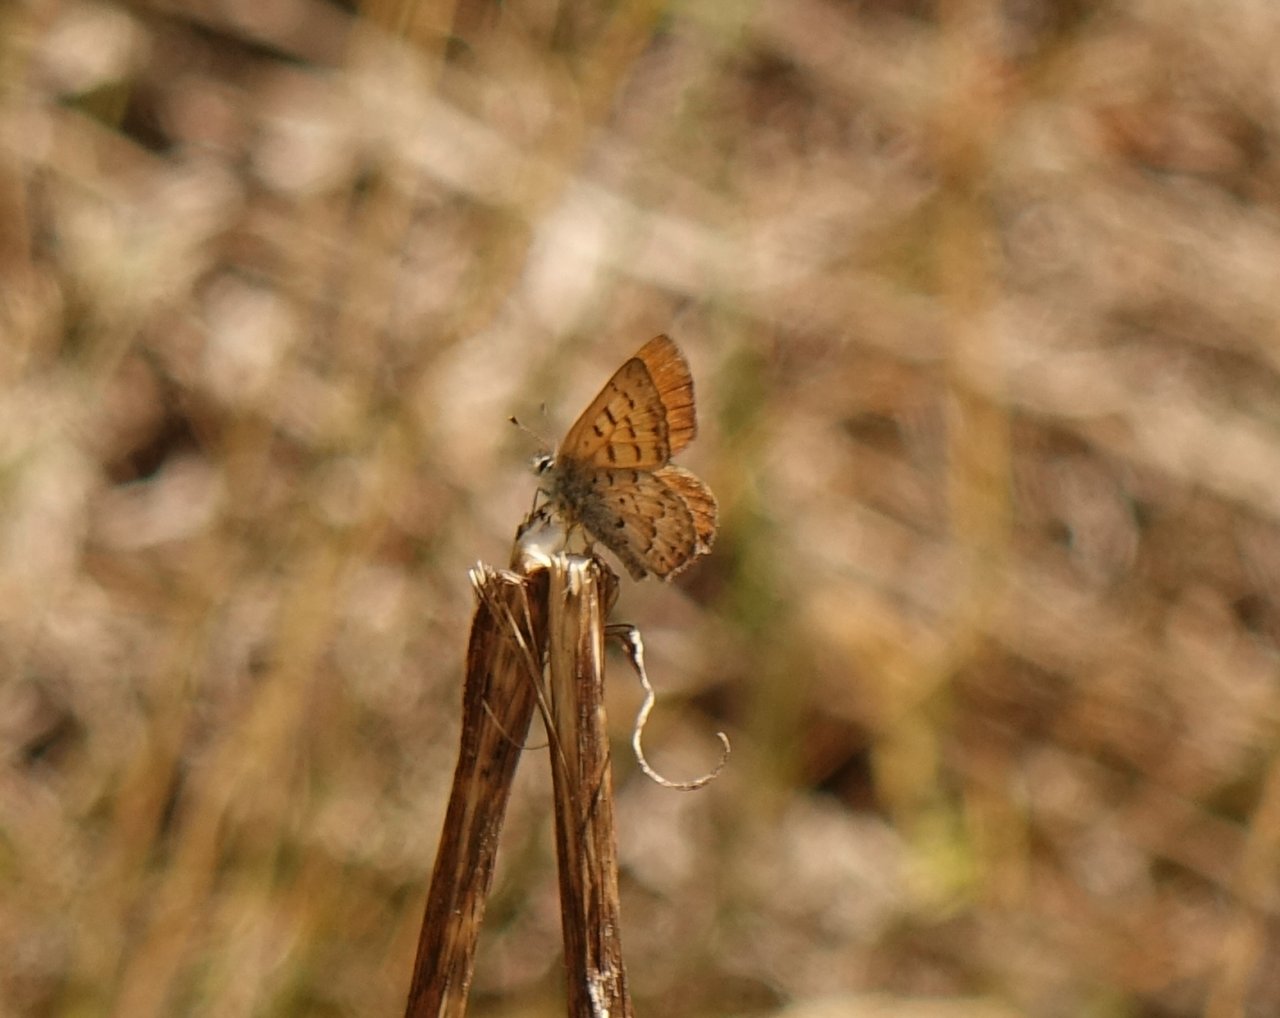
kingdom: Animalia
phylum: Arthropoda
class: Insecta
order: Lepidoptera
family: Lycaenidae
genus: Lycaena
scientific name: Lycaena mariposa
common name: Mariposa Copper
